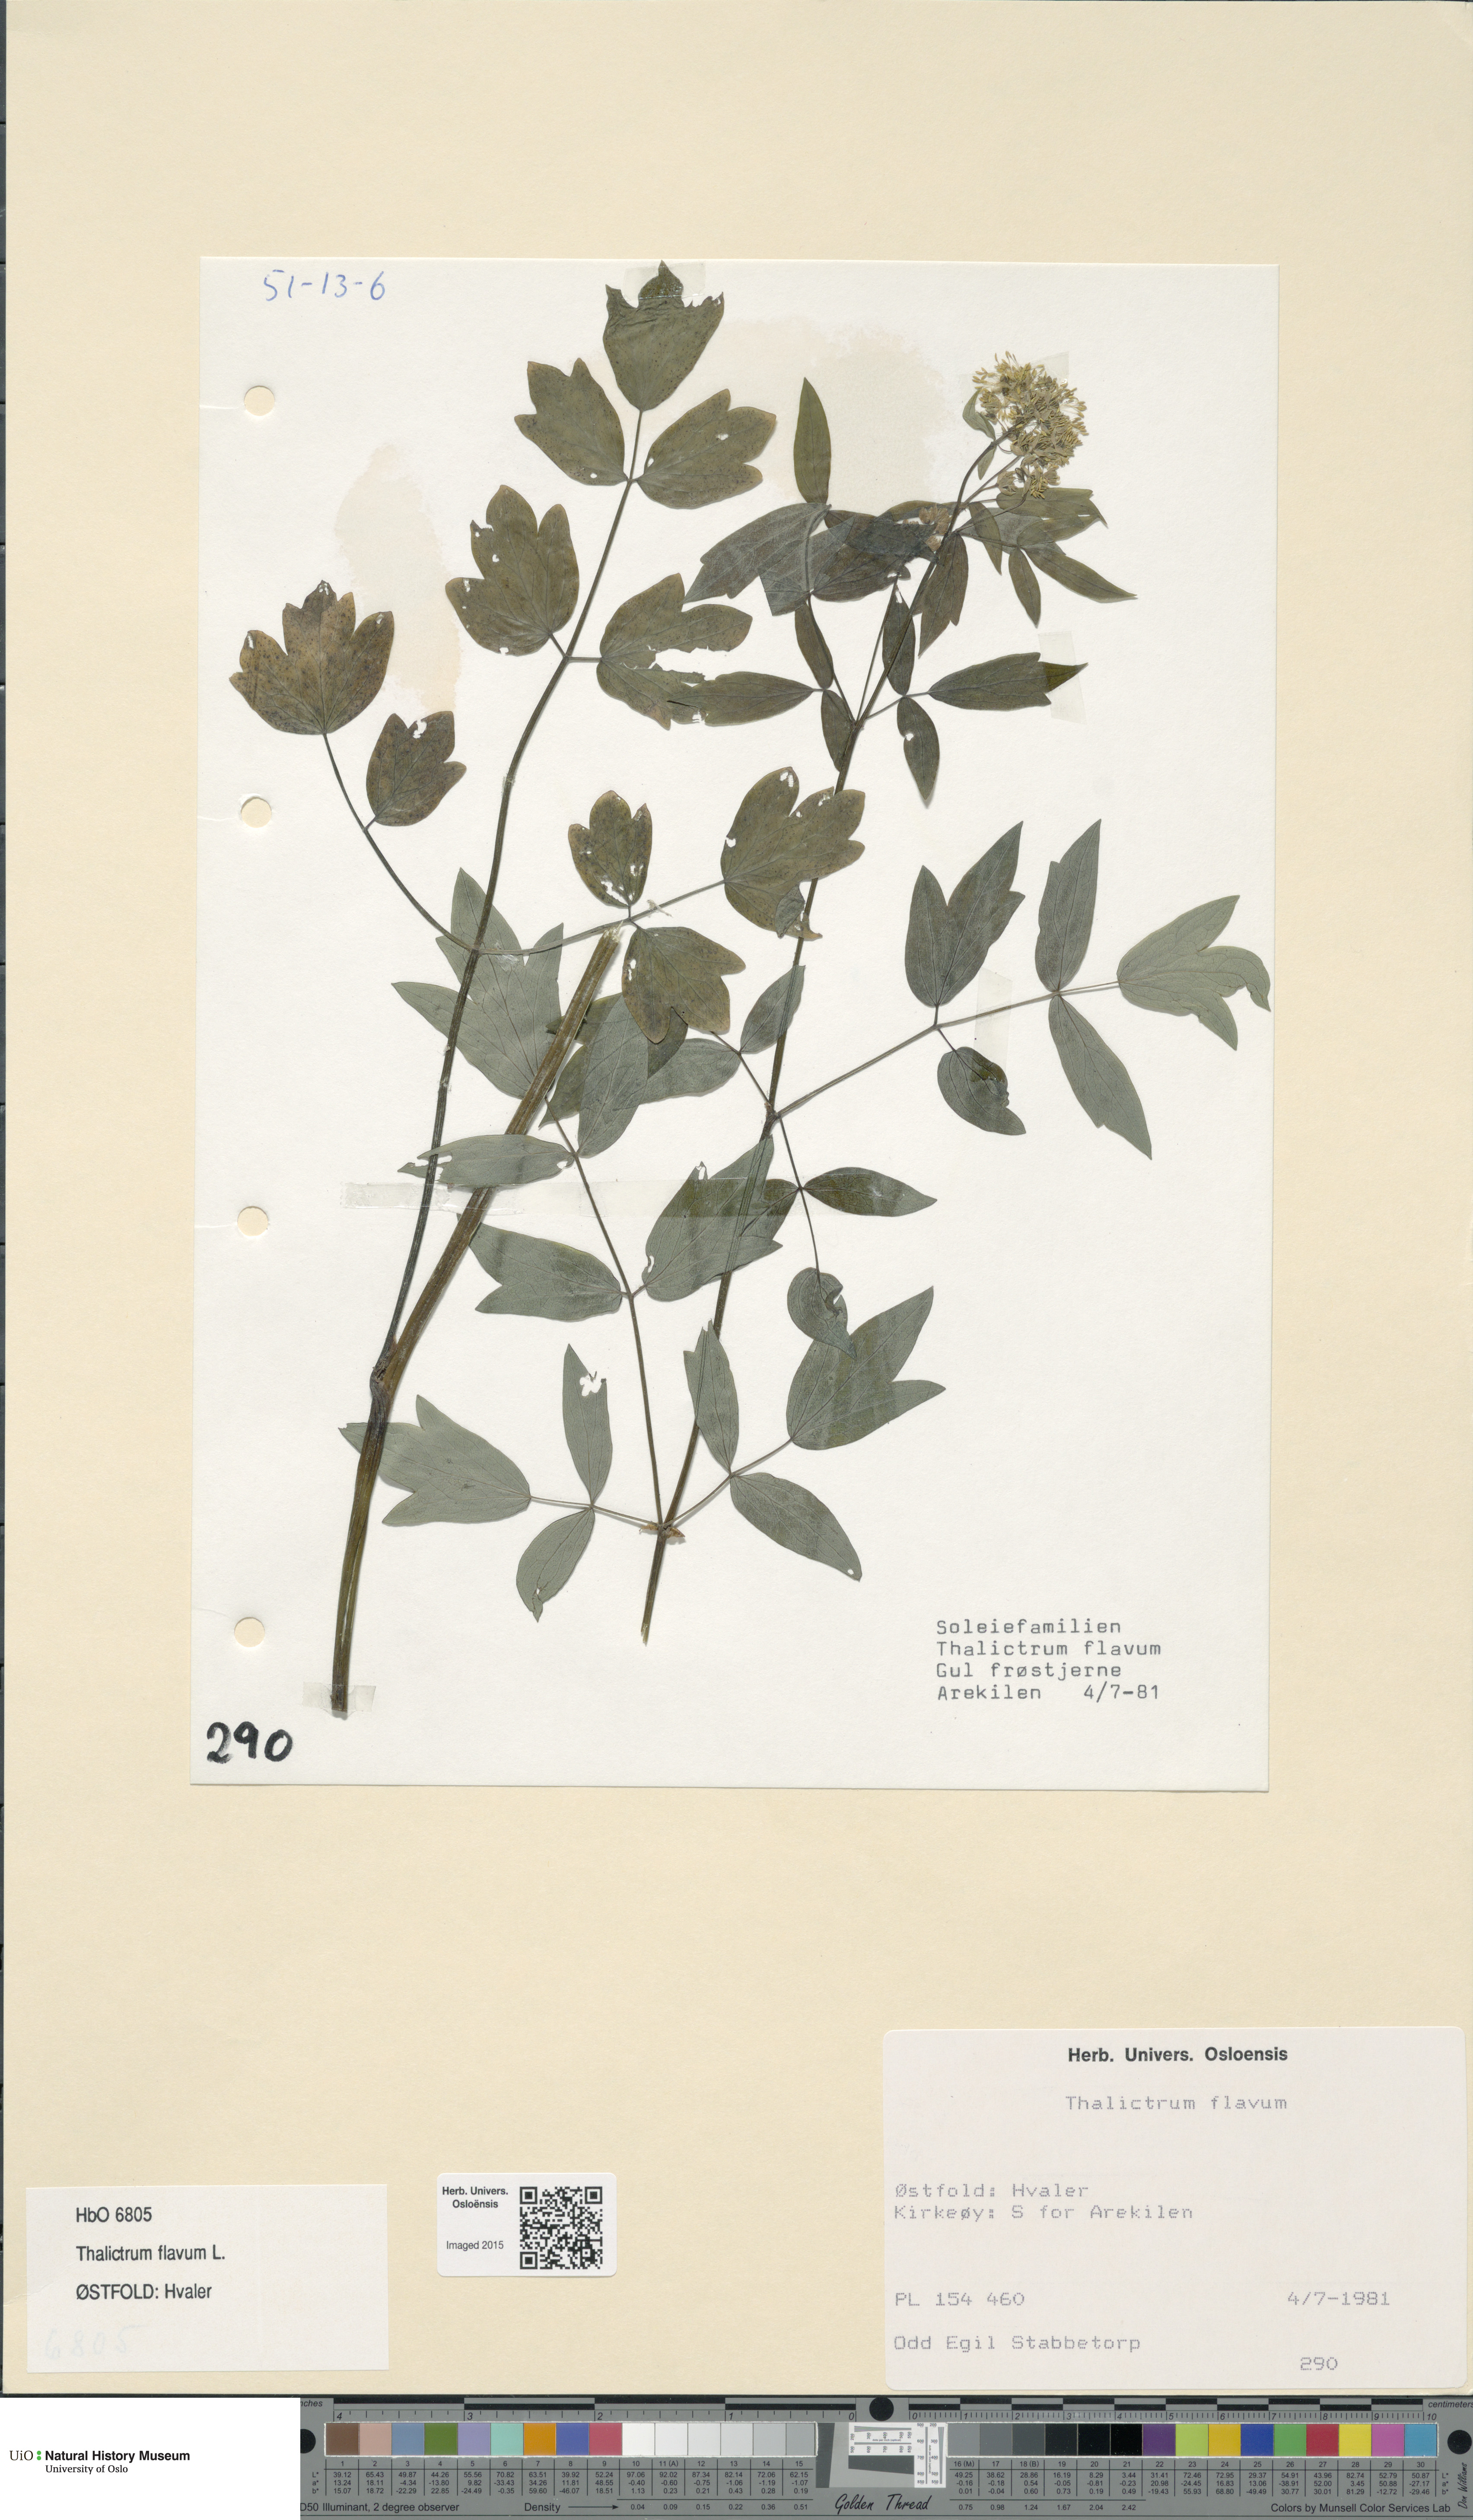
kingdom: Plantae
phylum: Tracheophyta
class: Magnoliopsida
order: Ranunculales
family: Ranunculaceae
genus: Thalictrum
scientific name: Thalictrum flavum
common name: Common meadow-rue
